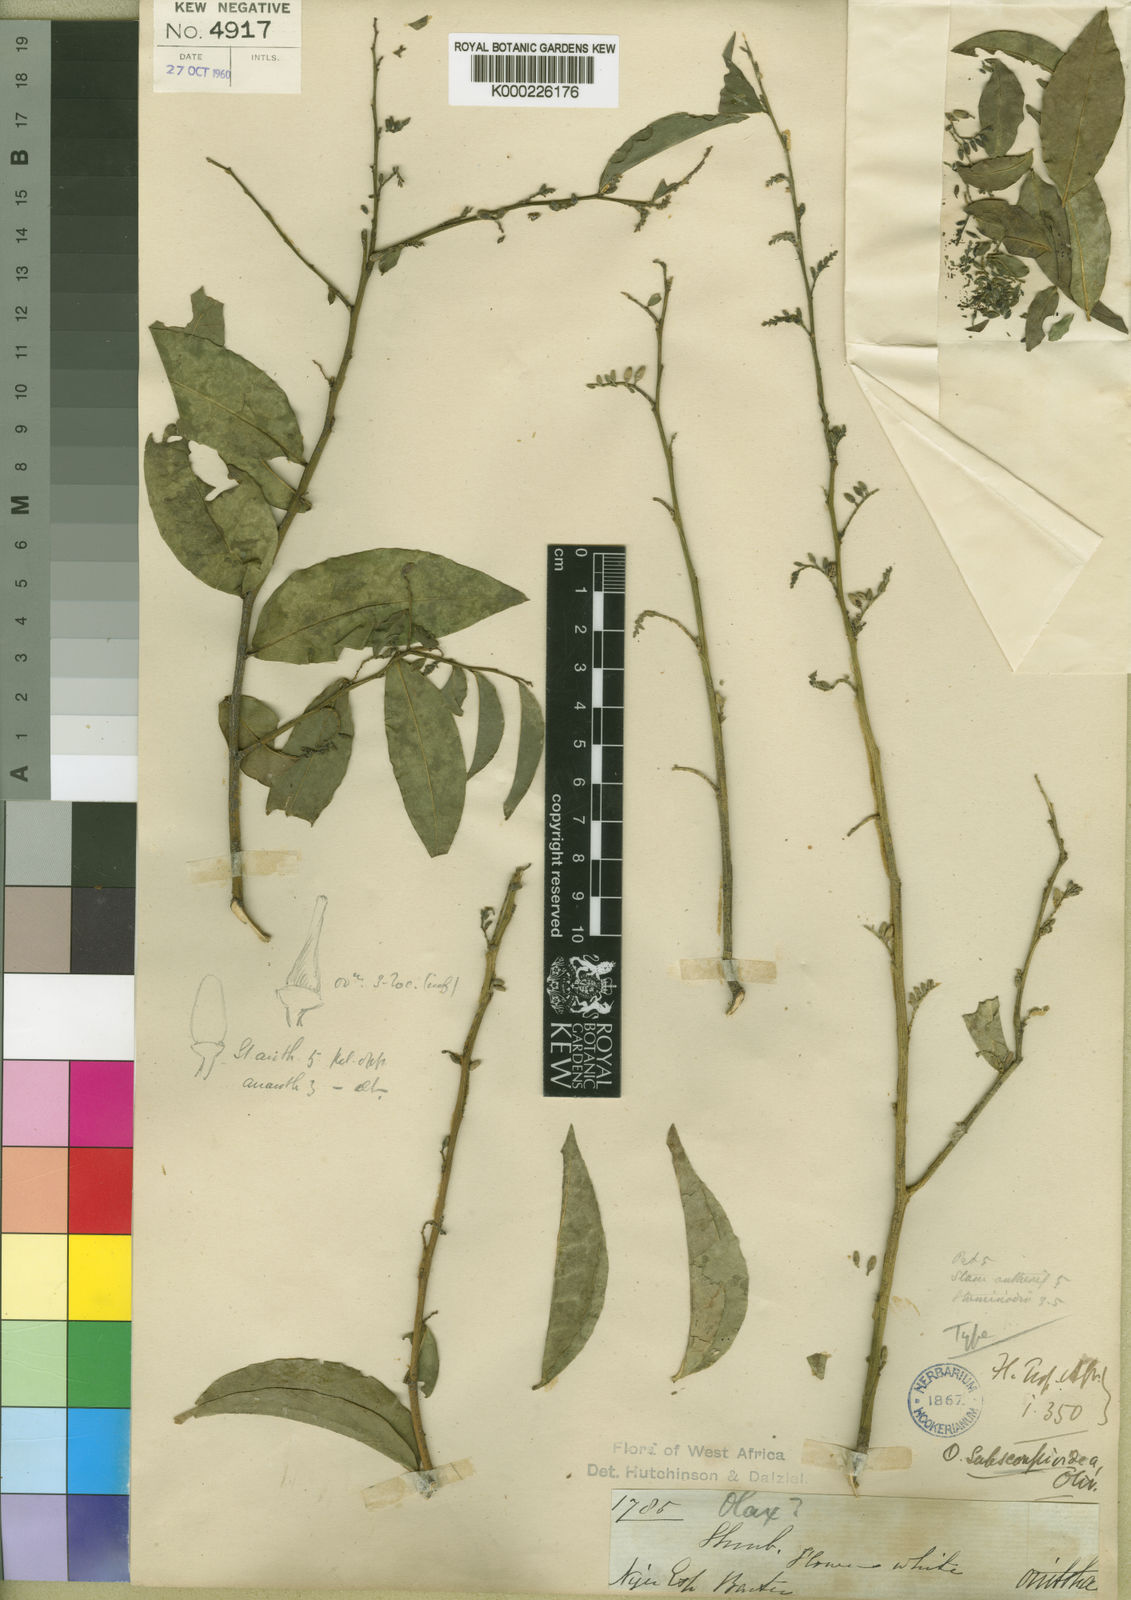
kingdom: Plantae
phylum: Tracheophyta
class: Magnoliopsida
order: Santalales
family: Olacaceae
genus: Olax
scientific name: Olax
